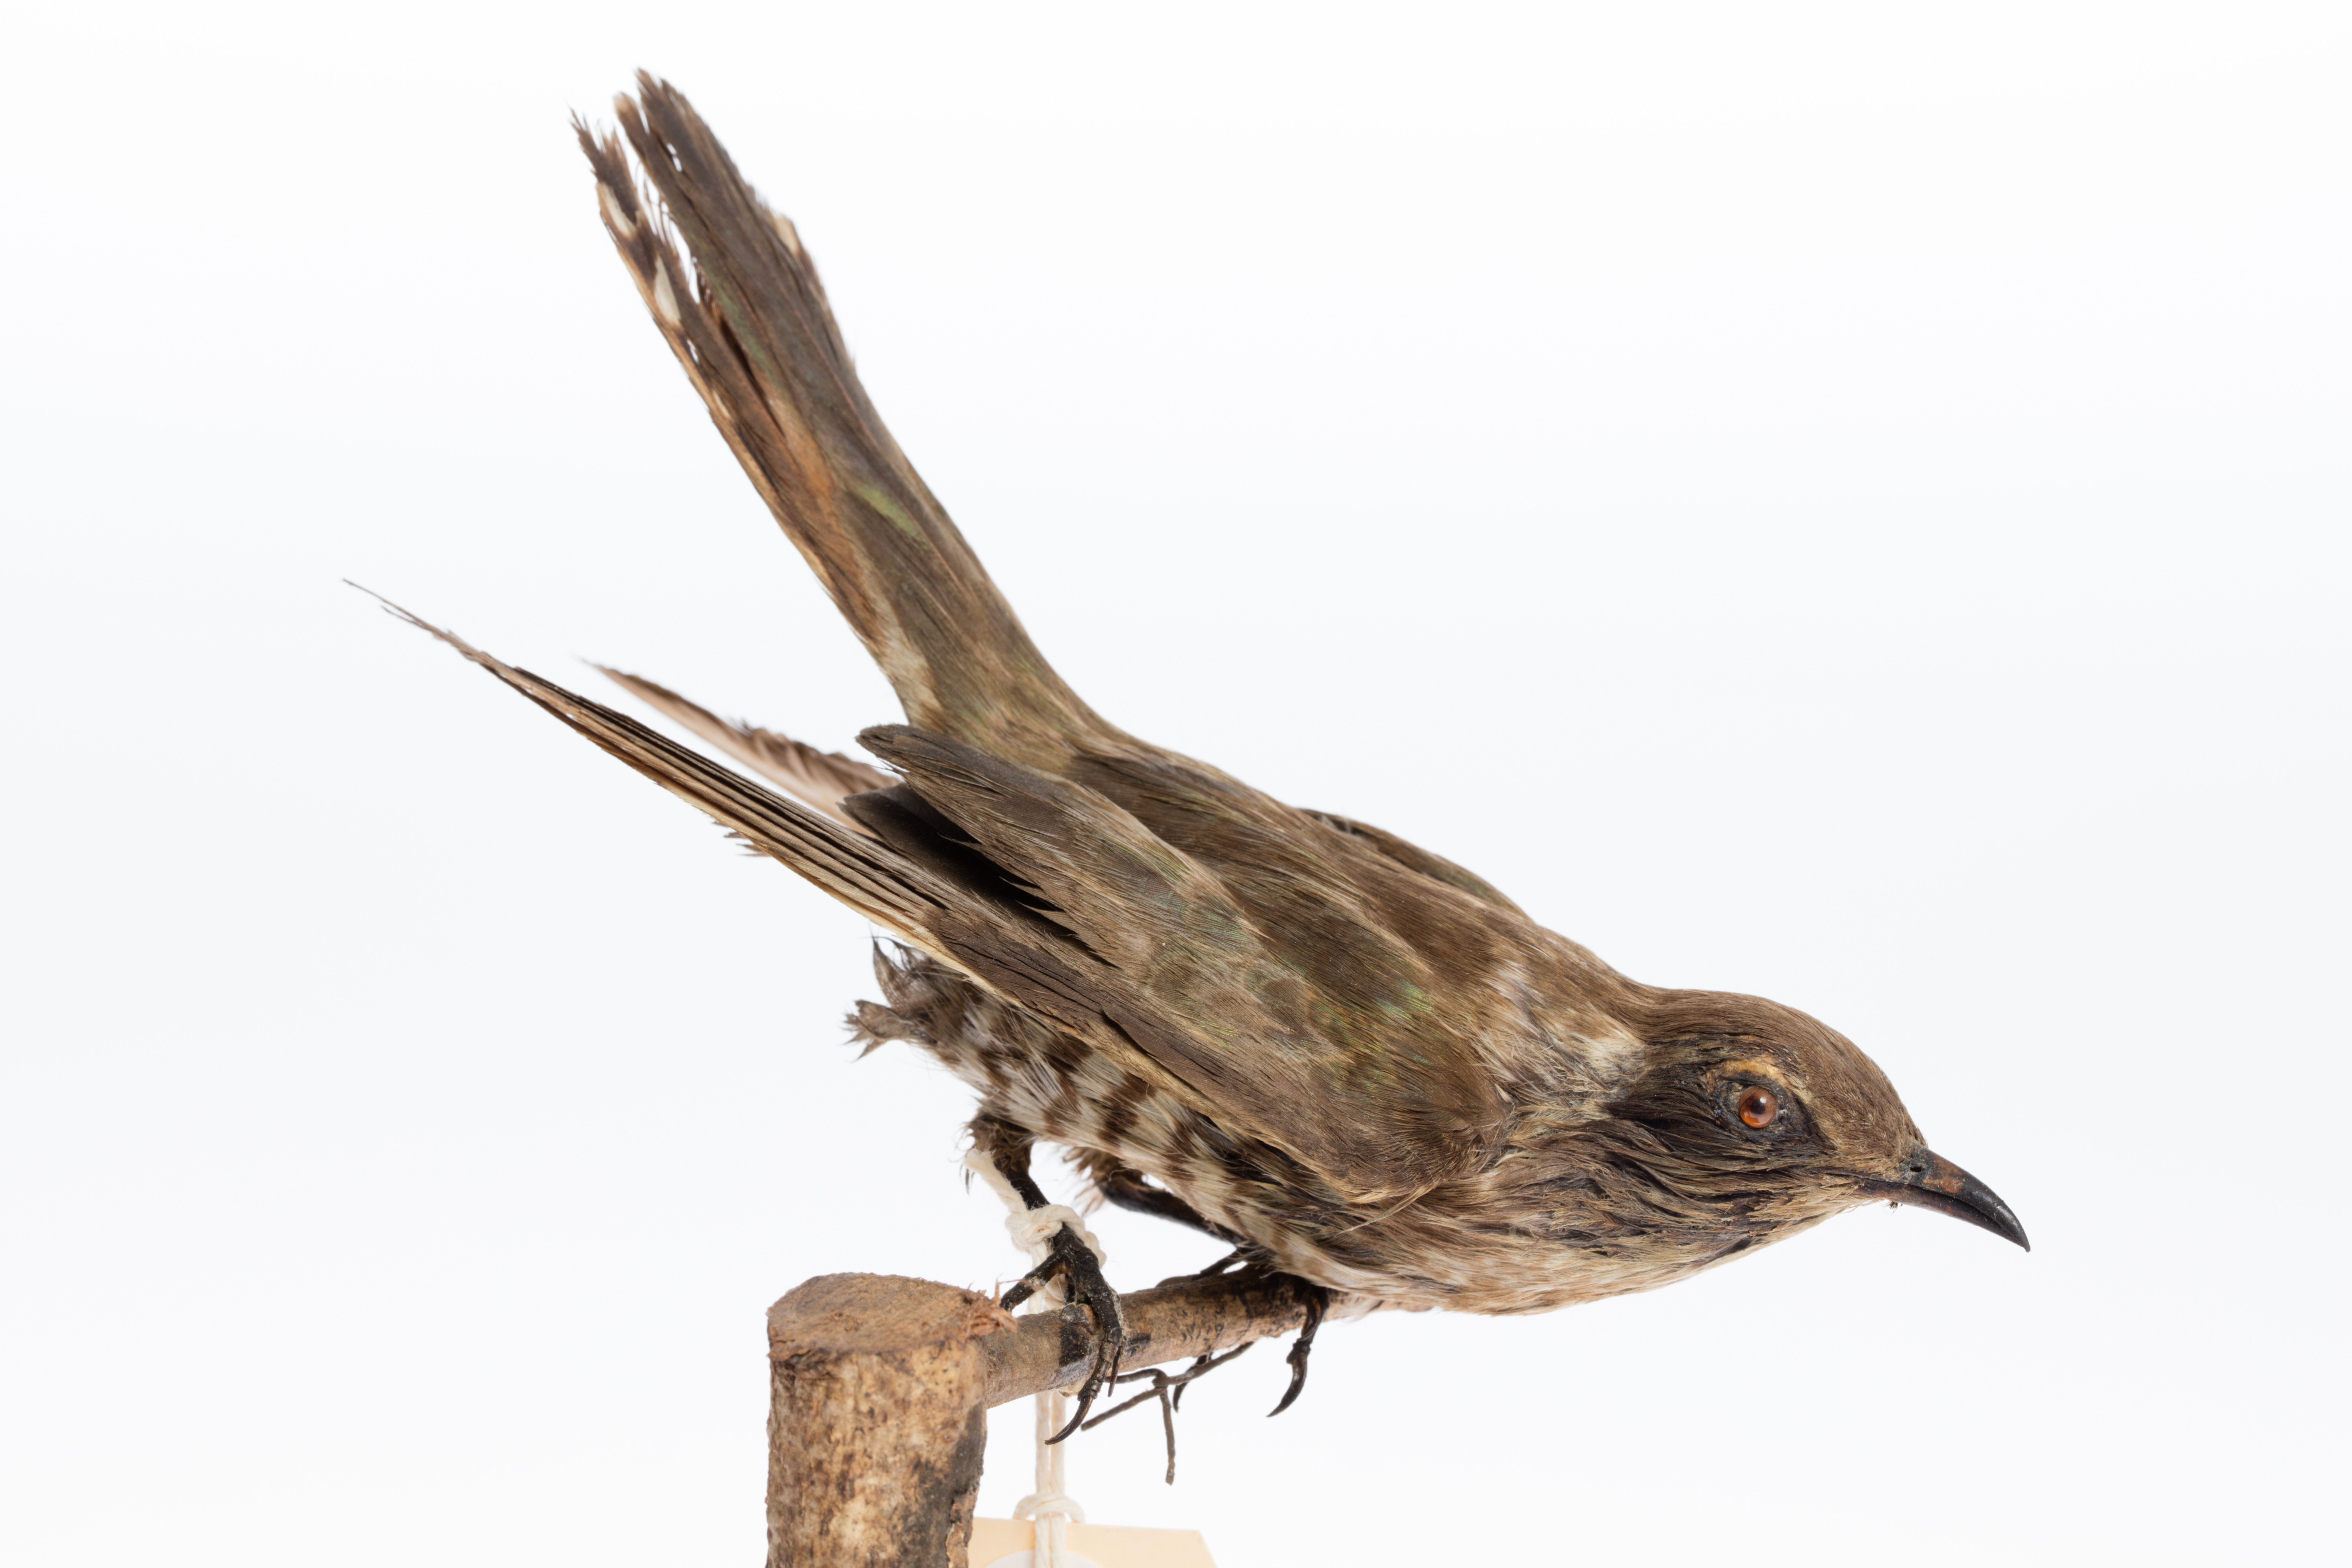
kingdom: Animalia
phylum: Chordata
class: Aves
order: Cuculiformes
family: Cuculidae
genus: Chrysococcyx
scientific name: Chrysococcyx basalis
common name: Horsfield's bronze cuckoo
